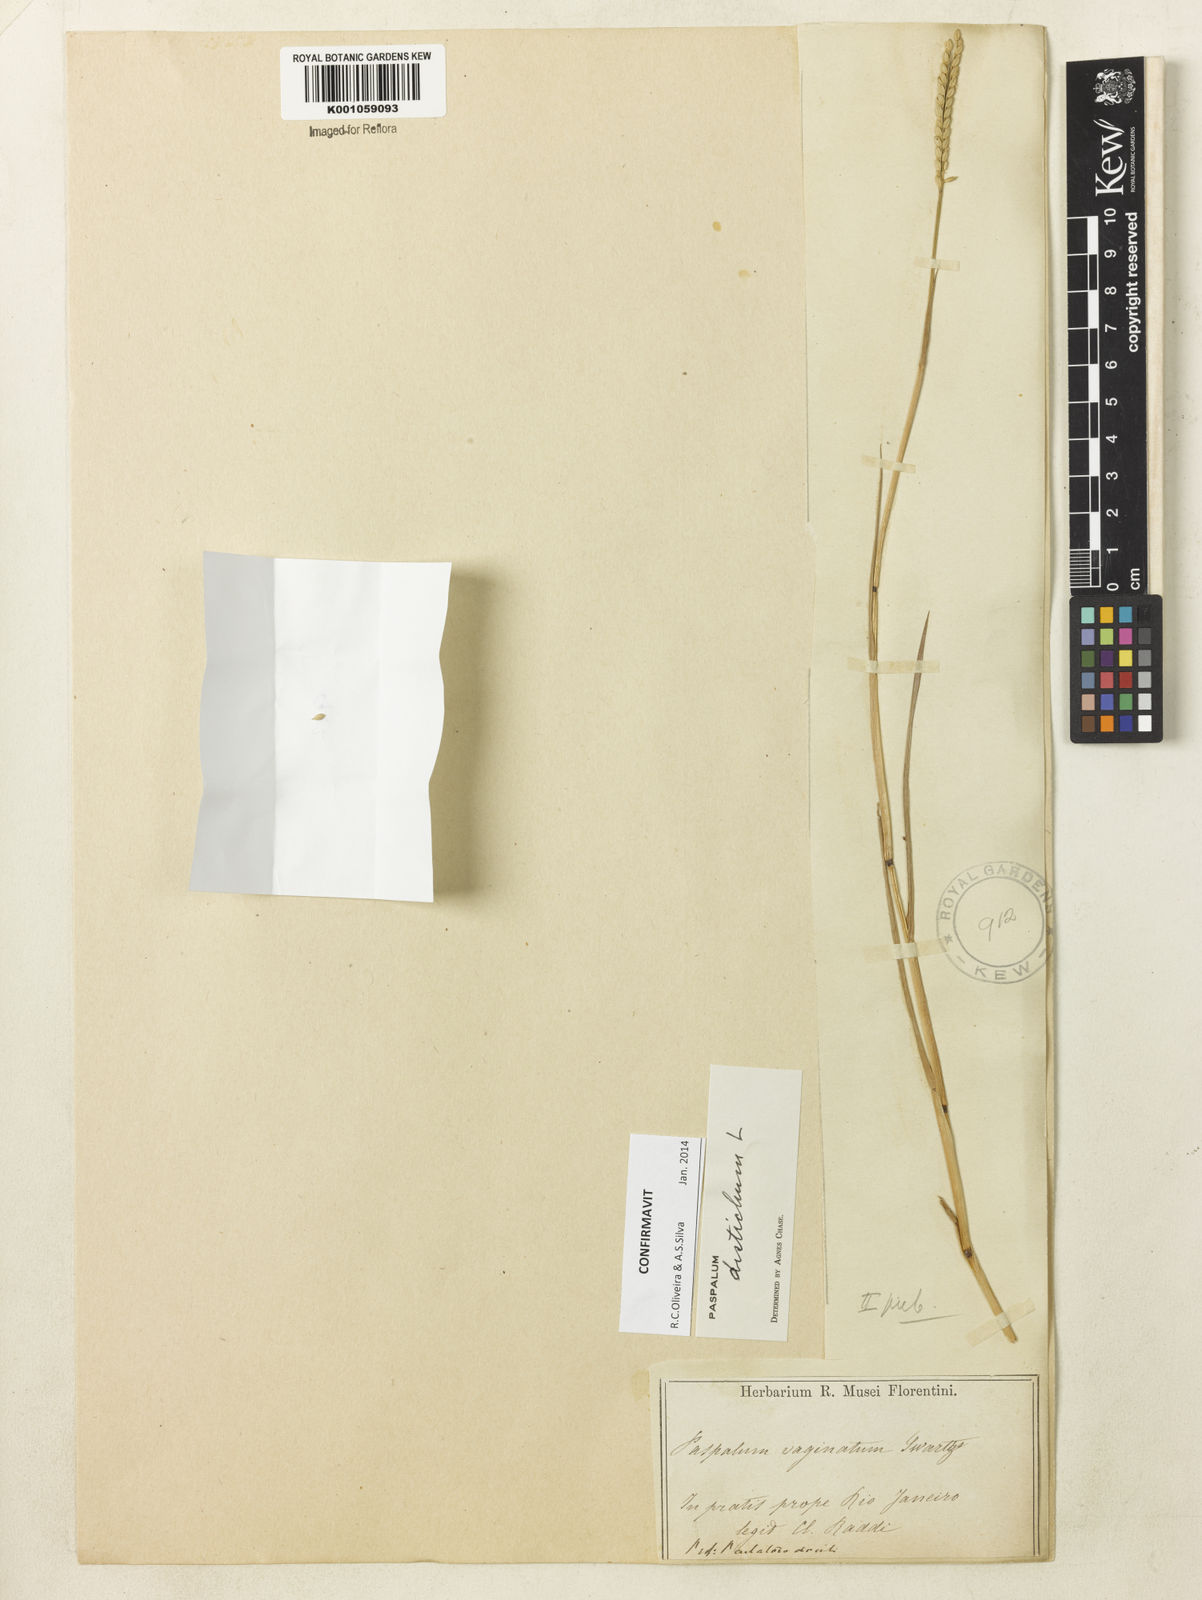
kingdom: Plantae
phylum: Tracheophyta
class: Liliopsida
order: Poales
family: Poaceae
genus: Paspalum
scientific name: Paspalum distichum
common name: Knotgrass
